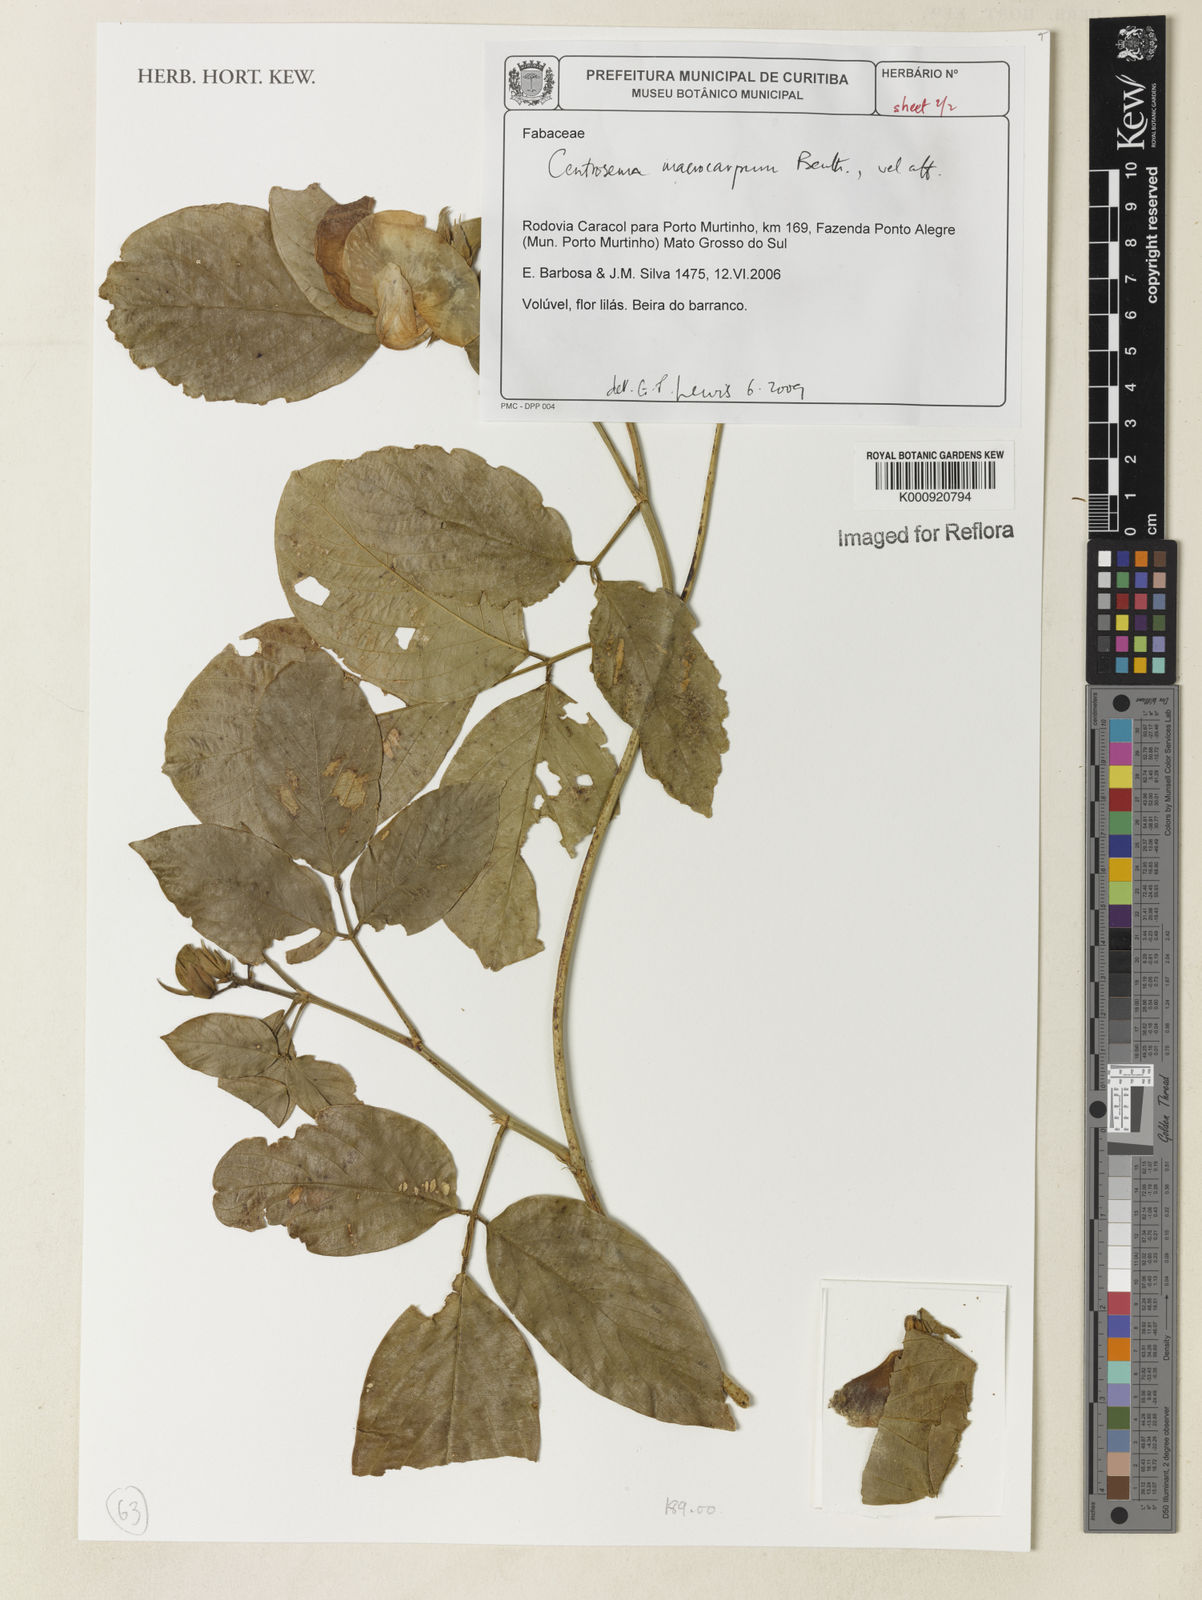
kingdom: Plantae
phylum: Tracheophyta
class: Magnoliopsida
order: Fabales
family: Fabaceae
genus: Centrosema
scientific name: Centrosema macrocarpum
